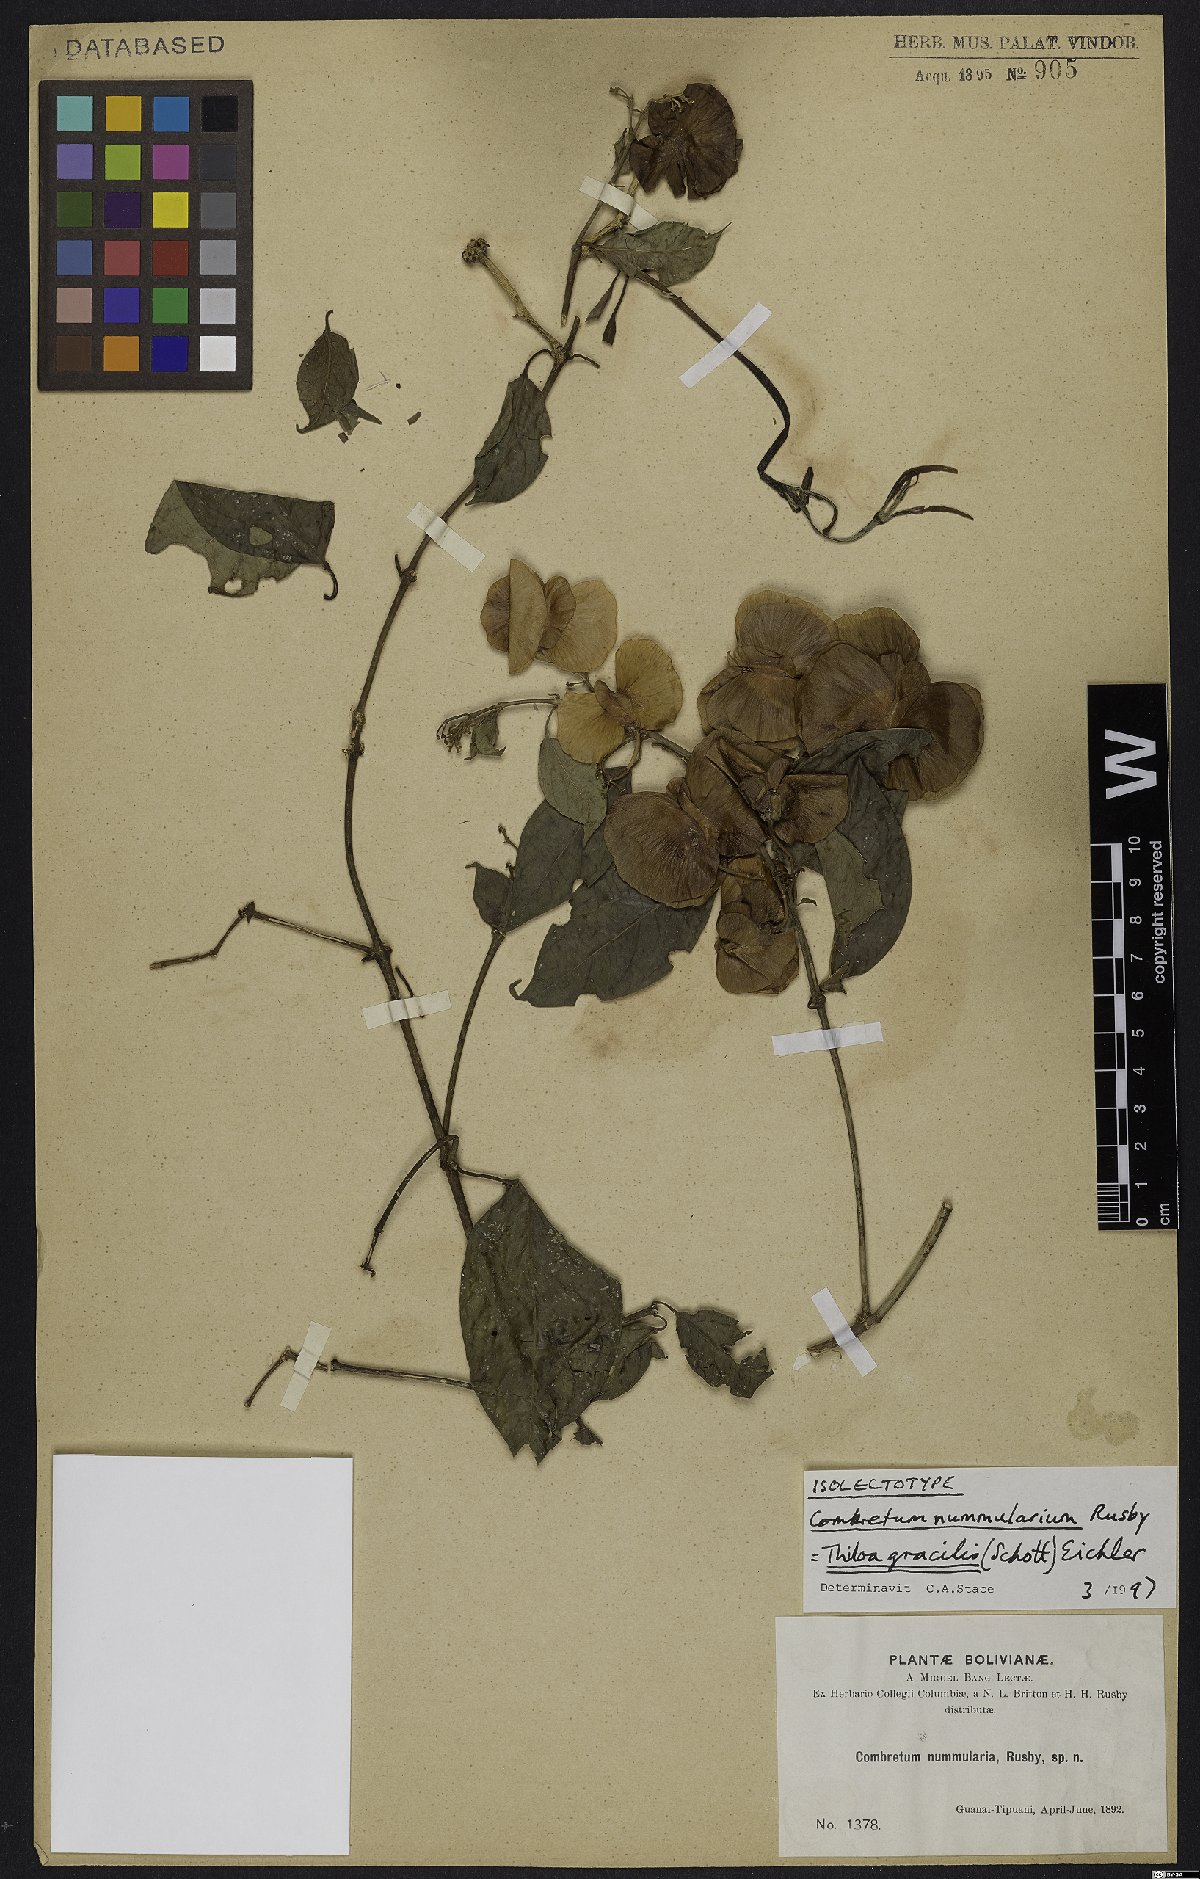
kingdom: Plantae
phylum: Tracheophyta
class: Magnoliopsida
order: Myrtales
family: Combretaceae
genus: Combretum
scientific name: Combretum gracile
